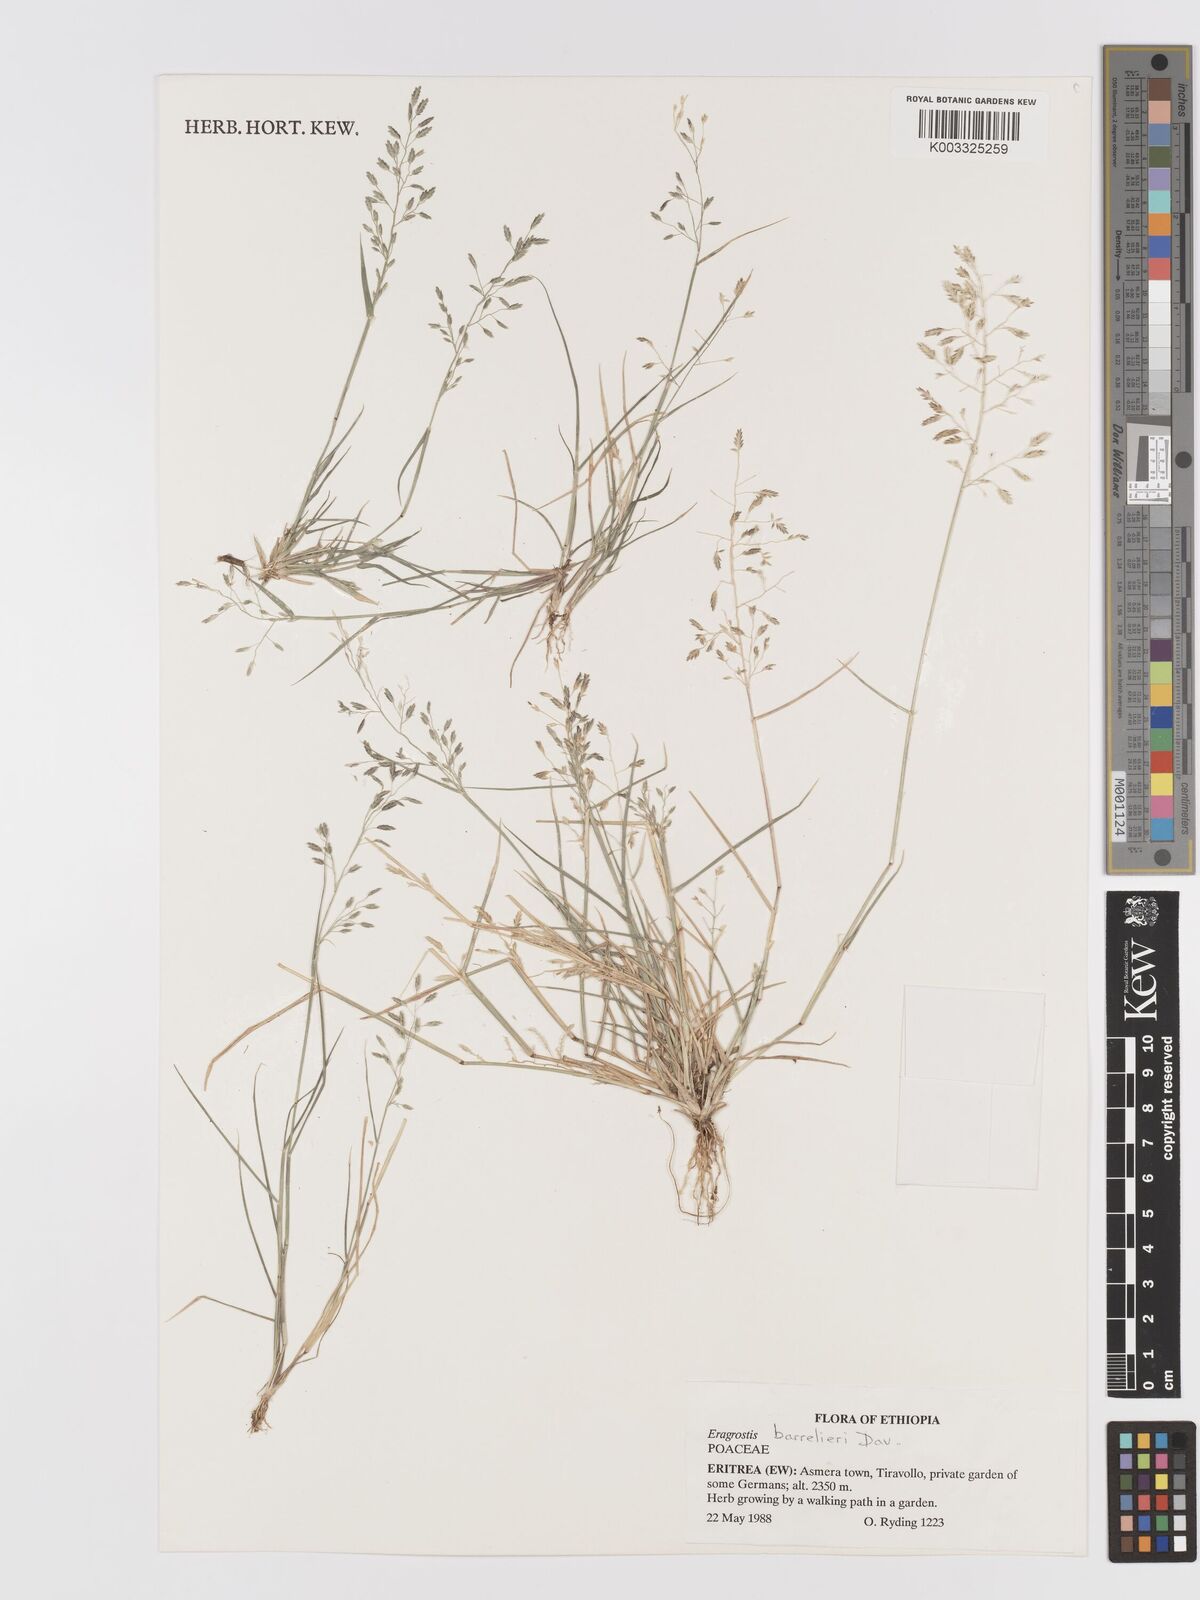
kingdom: Plantae
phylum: Tracheophyta
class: Liliopsida
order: Poales
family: Poaceae
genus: Eragrostis
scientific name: Eragrostis barrelieri
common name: Mediterranean lovegrass
